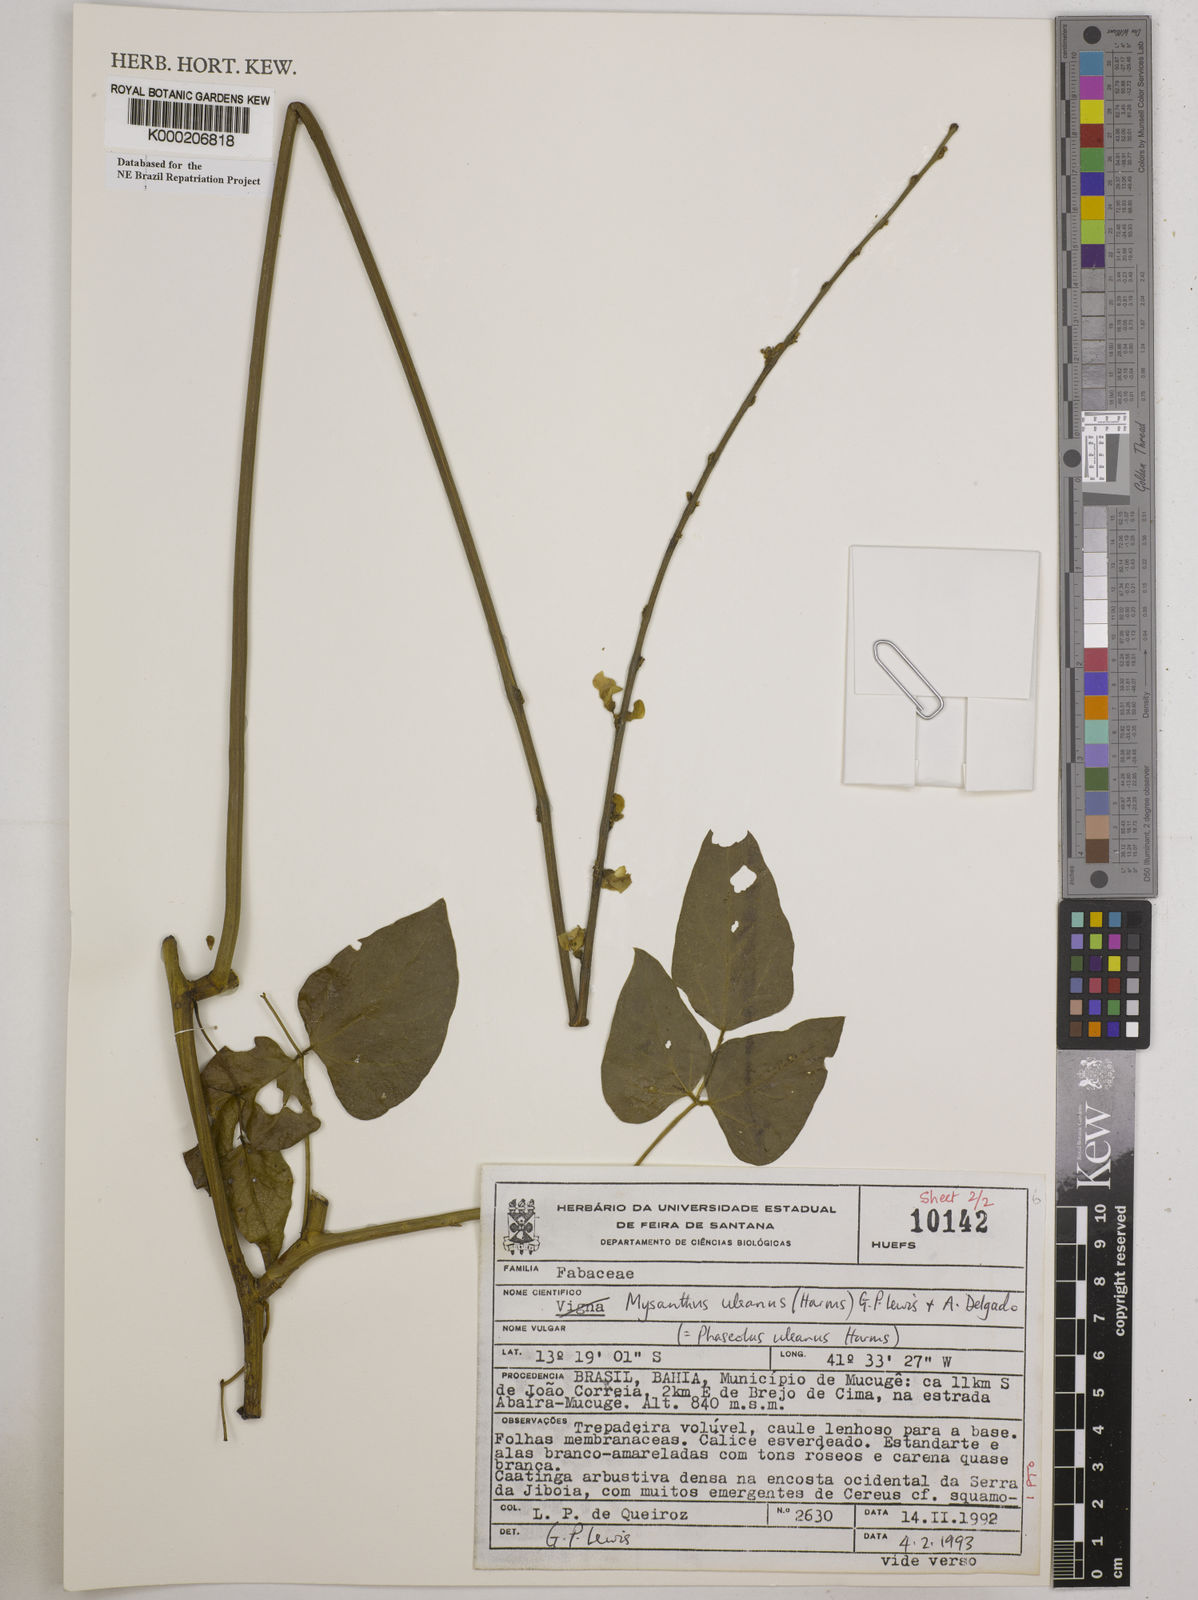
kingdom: Plantae
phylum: Tracheophyta
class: Magnoliopsida
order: Fabales
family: Fabaceae
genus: Mysanthus
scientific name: Mysanthus uleanus
